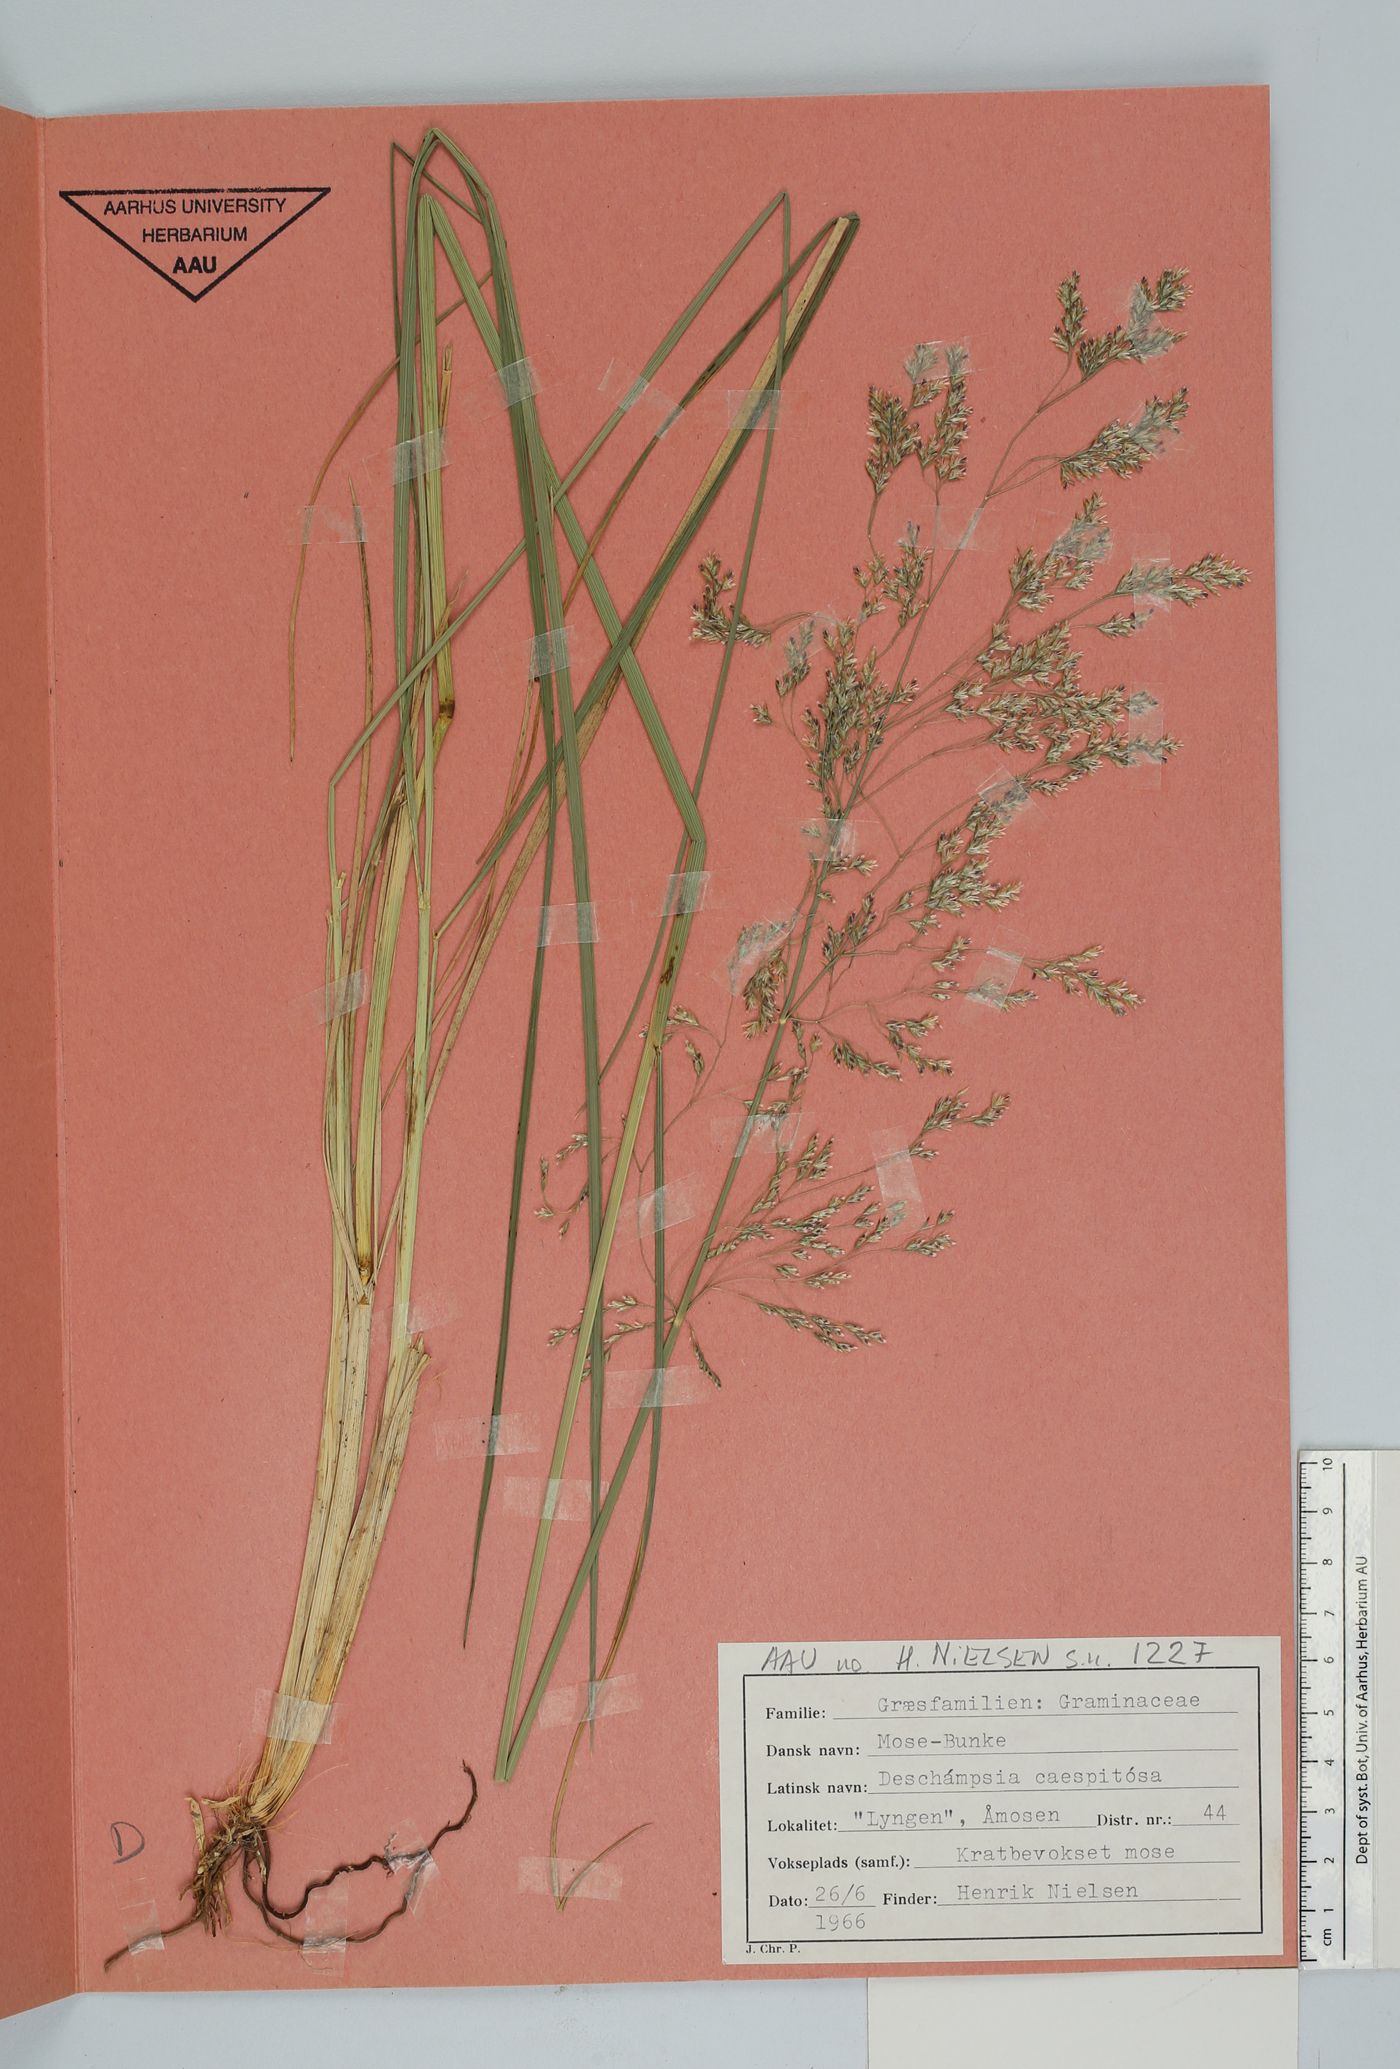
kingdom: Plantae
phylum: Tracheophyta
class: Liliopsida
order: Poales
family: Poaceae
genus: Deschampsia
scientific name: Deschampsia cespitosa
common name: Tufted hair-grass
